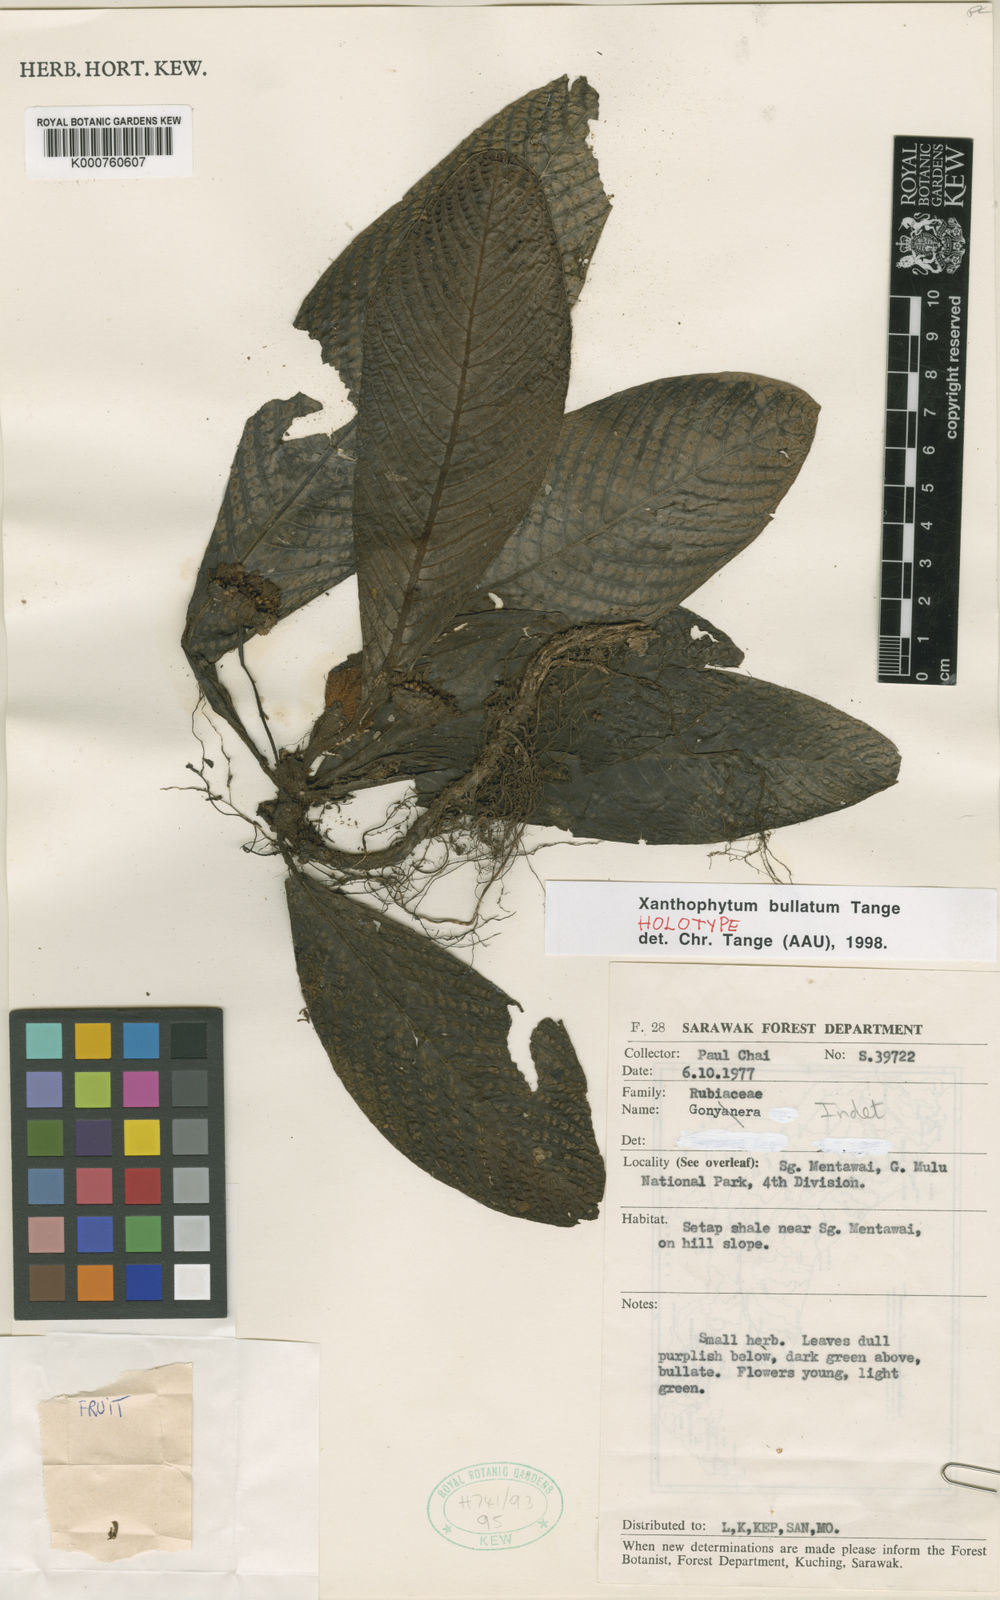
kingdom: Plantae
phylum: Tracheophyta
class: Magnoliopsida
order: Gentianales
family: Rubiaceae
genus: Xanthophytum
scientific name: Xanthophytum bullatum
